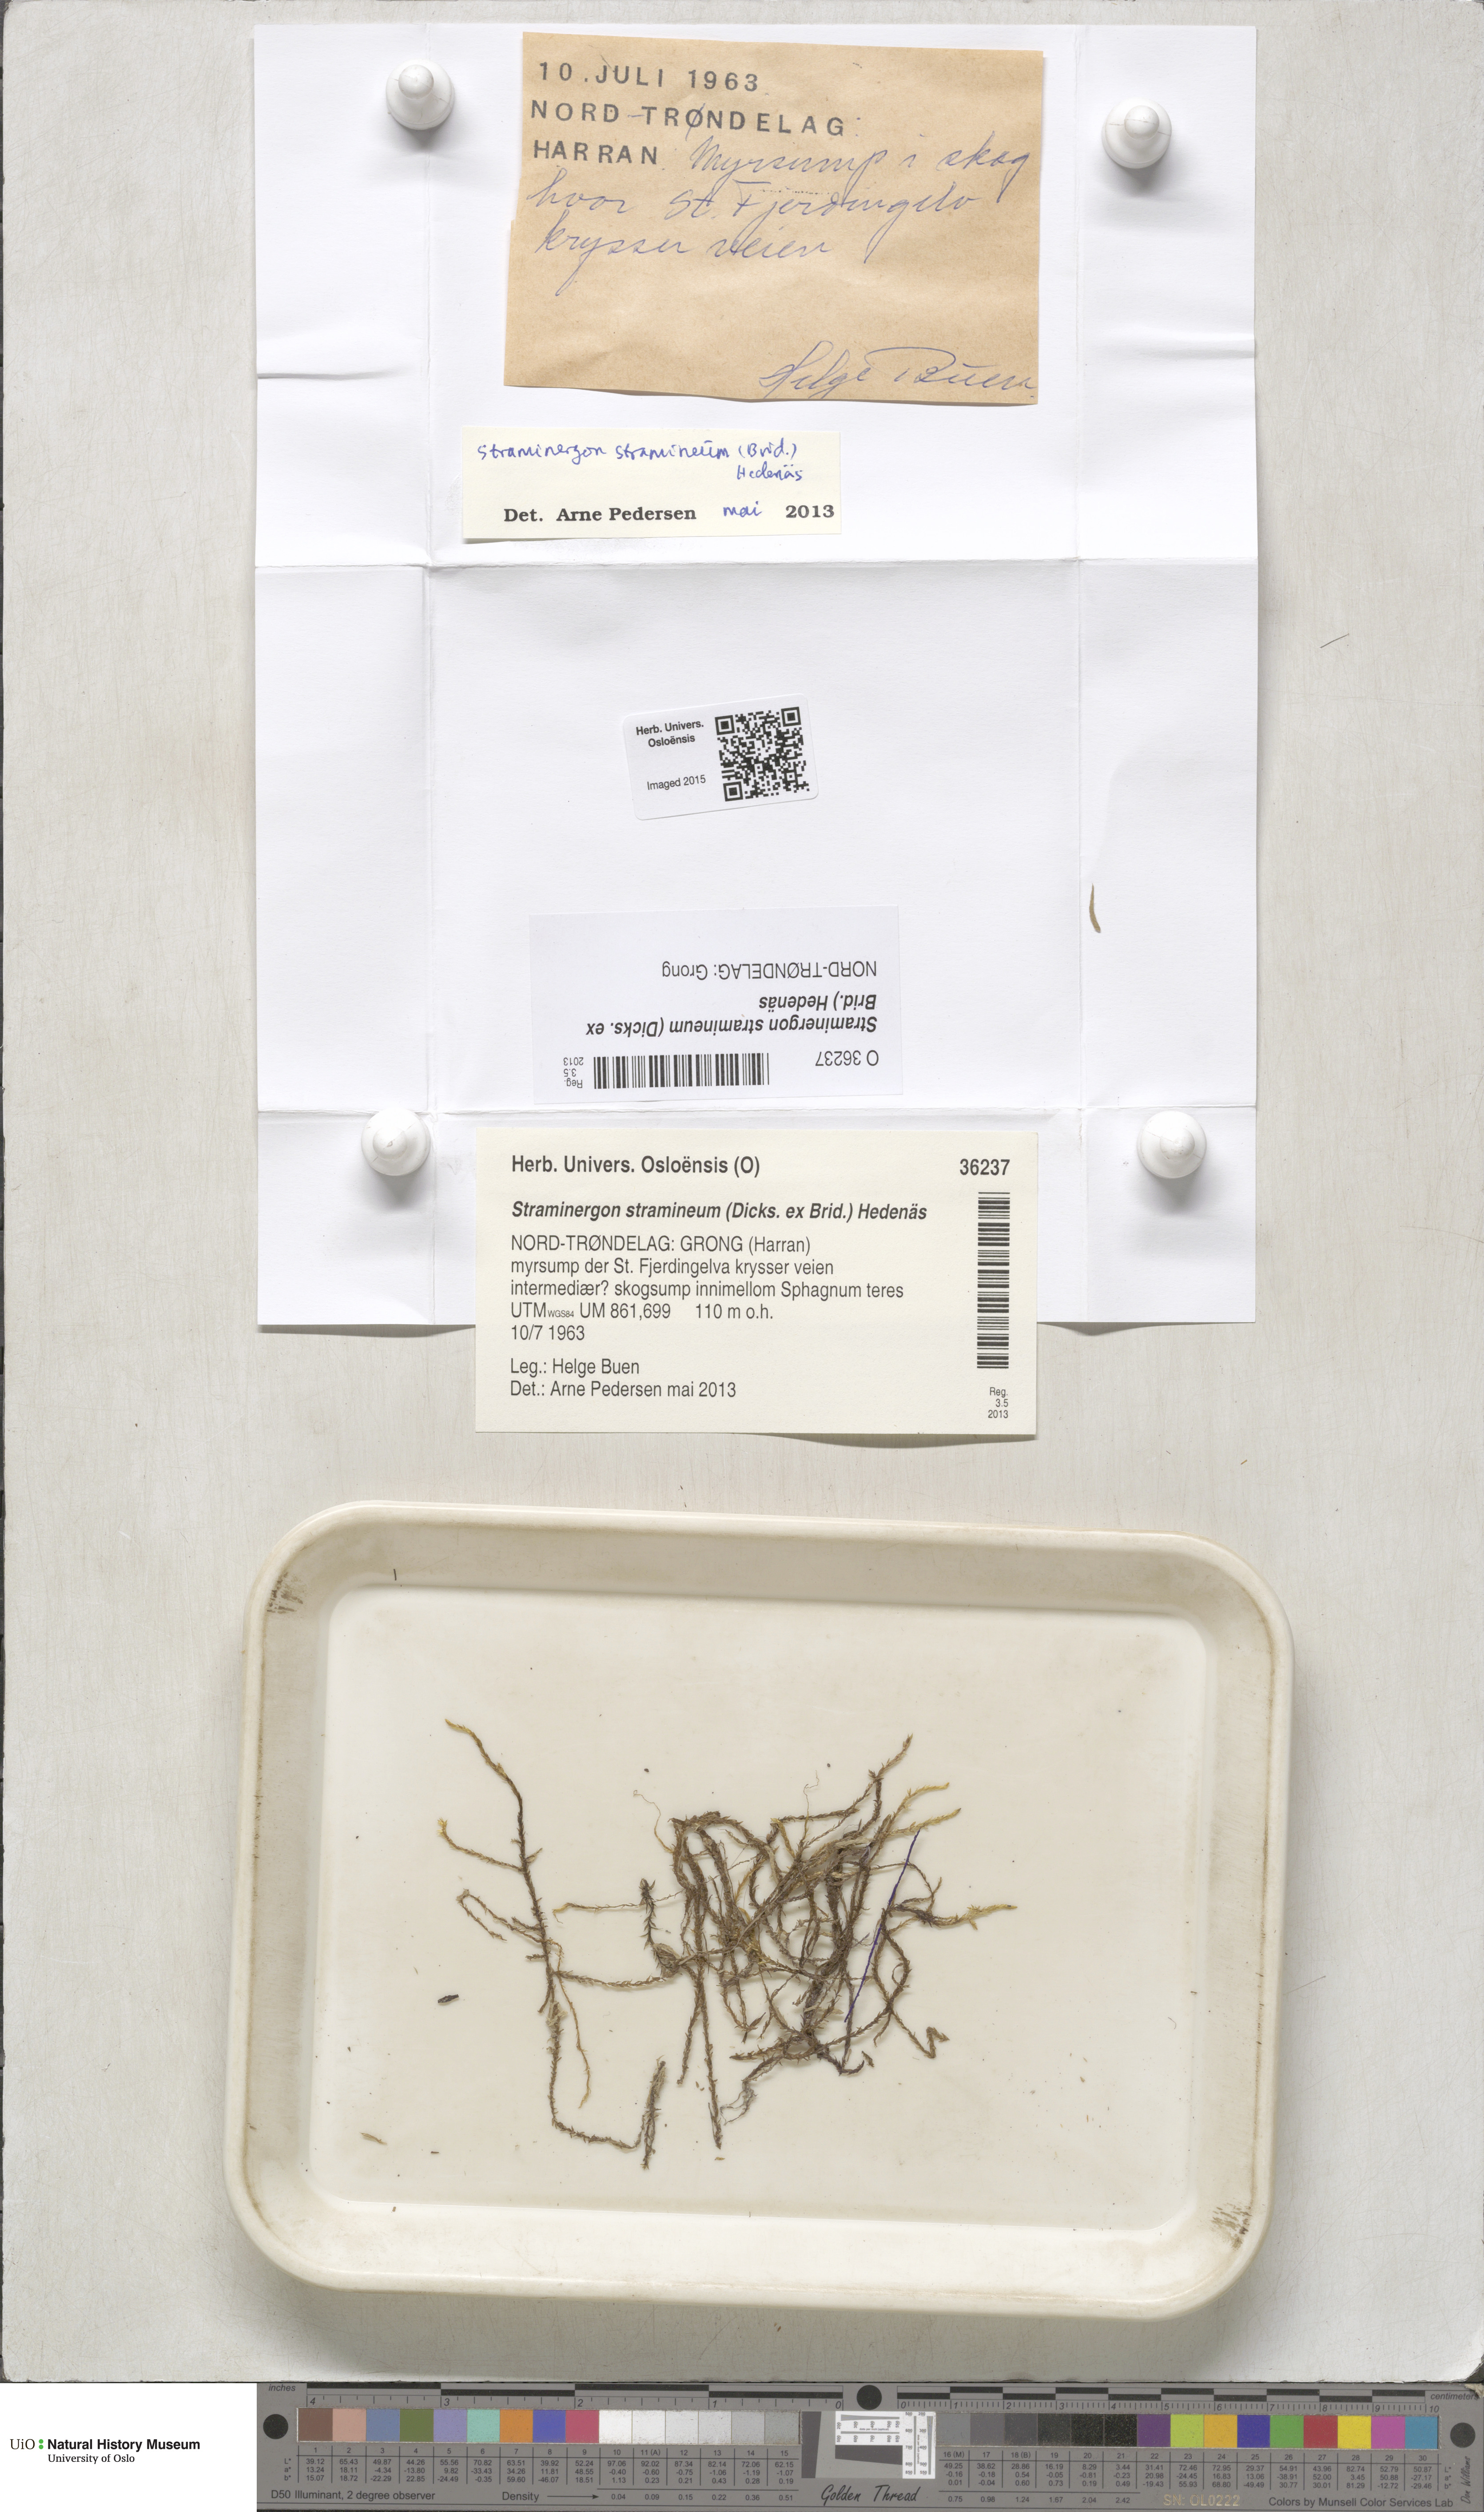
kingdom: Plantae
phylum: Bryophyta
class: Bryopsida
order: Hypnales
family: Calliergonaceae
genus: Straminergon
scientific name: Straminergon stramineum
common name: Straw moss
